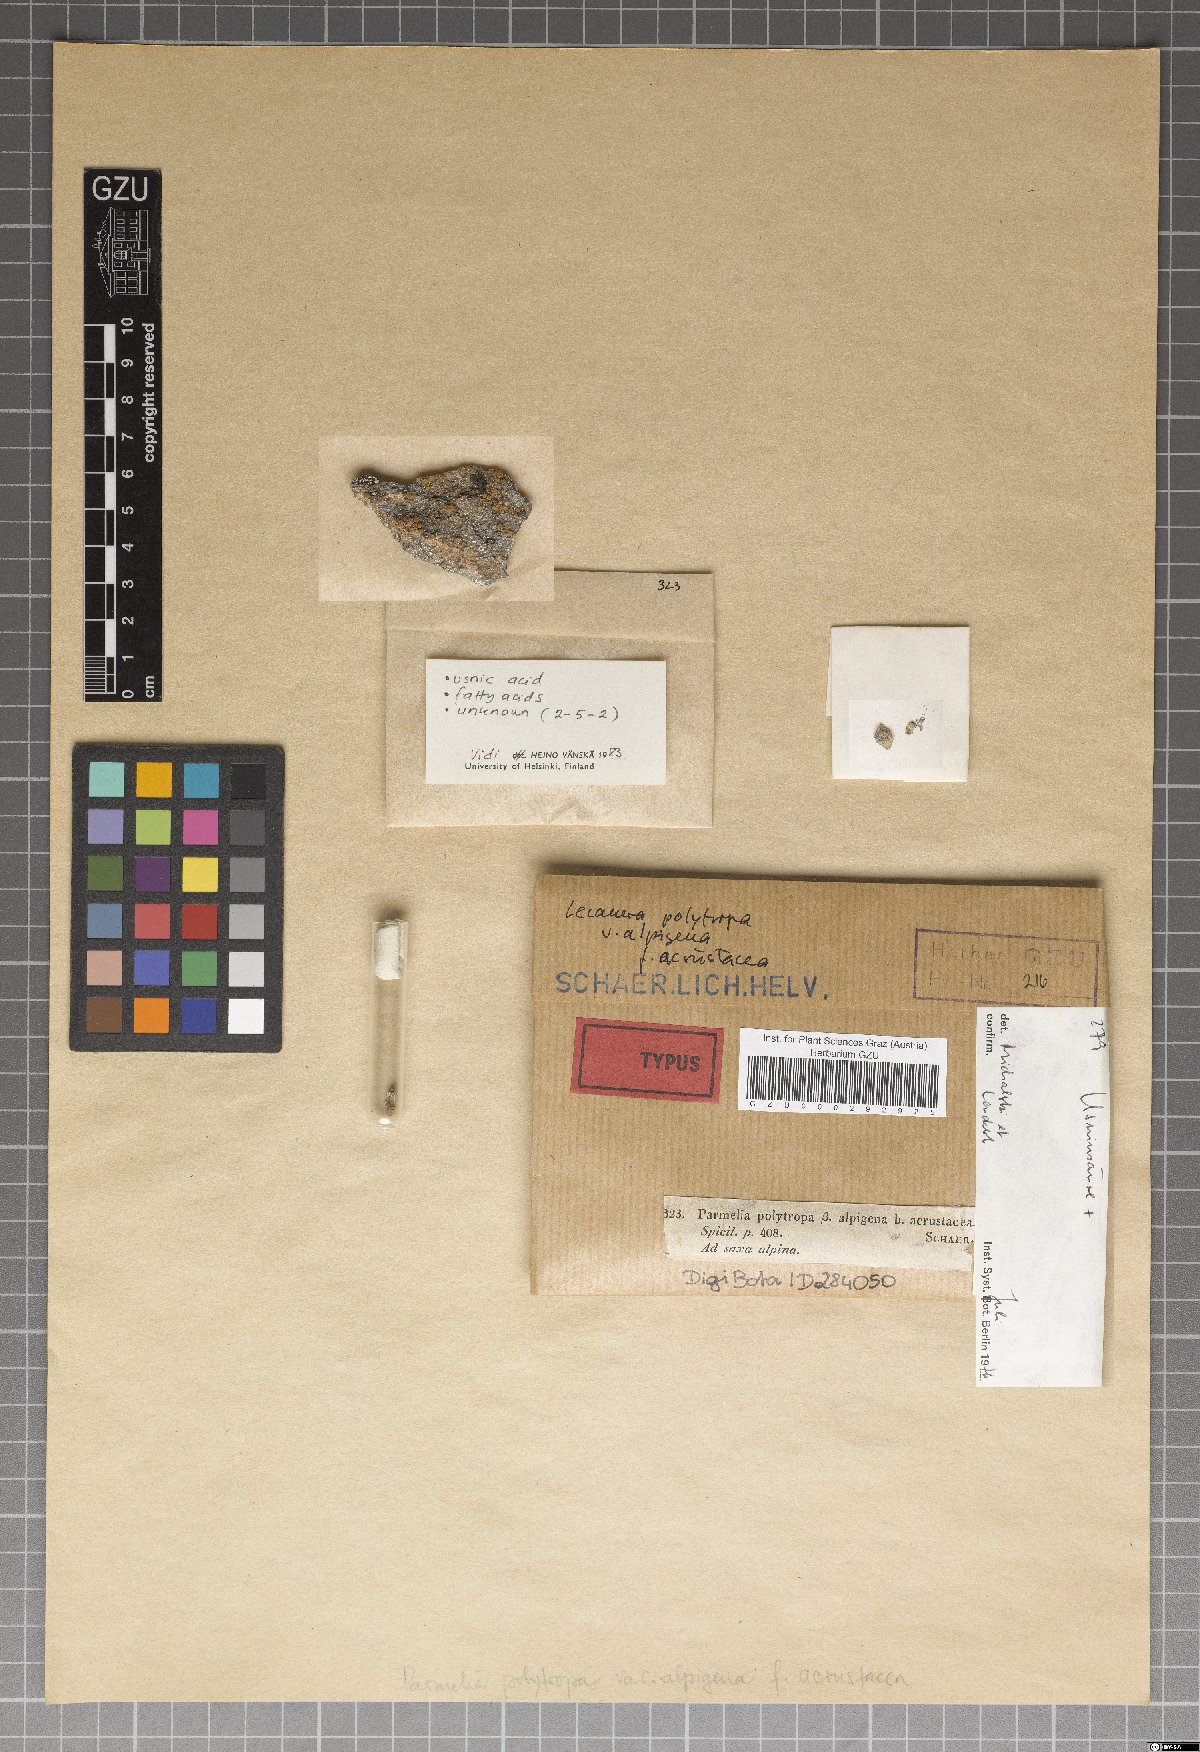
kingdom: Fungi
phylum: Ascomycota
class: Lecanoromycetes
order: Lecanorales
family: Lecanoraceae
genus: Lecanora
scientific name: Lecanora polytropa
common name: Granite-speck rim lichen
